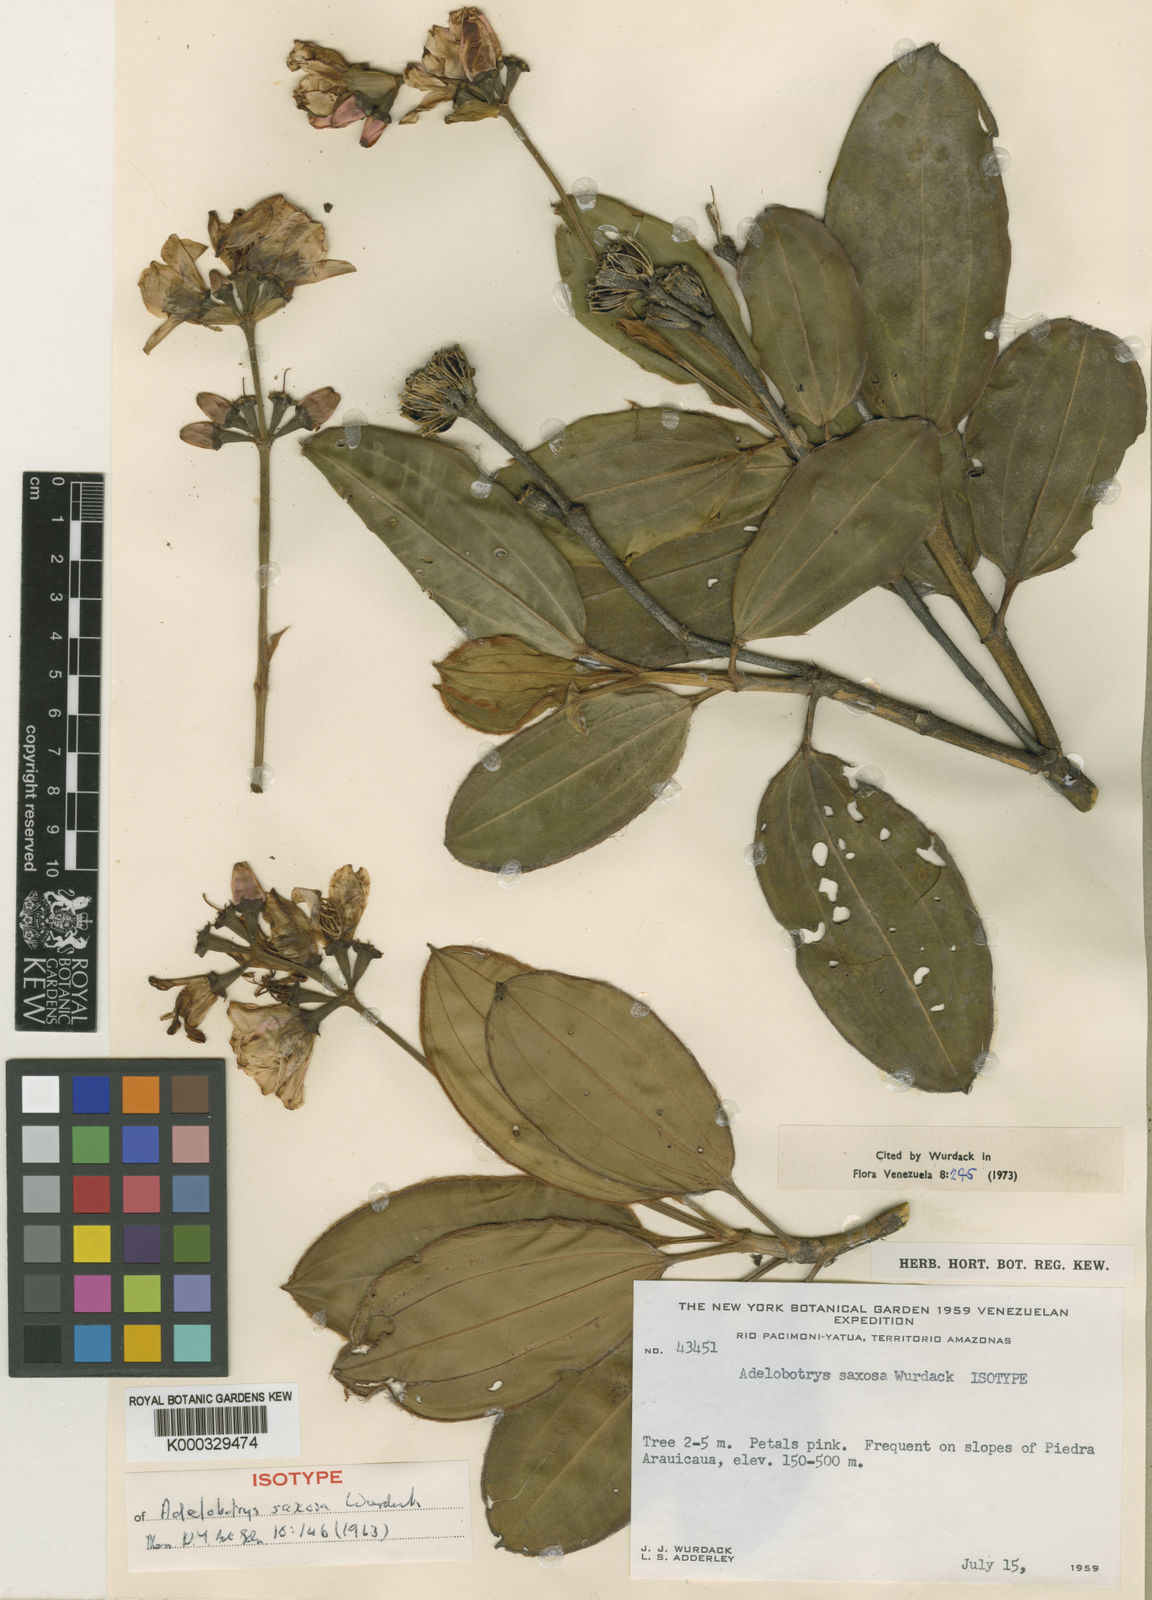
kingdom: Plantae
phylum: Tracheophyta
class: Magnoliopsida
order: Myrtales
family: Melastomataceae
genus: Adelobotrys
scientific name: Adelobotrys saxosus
